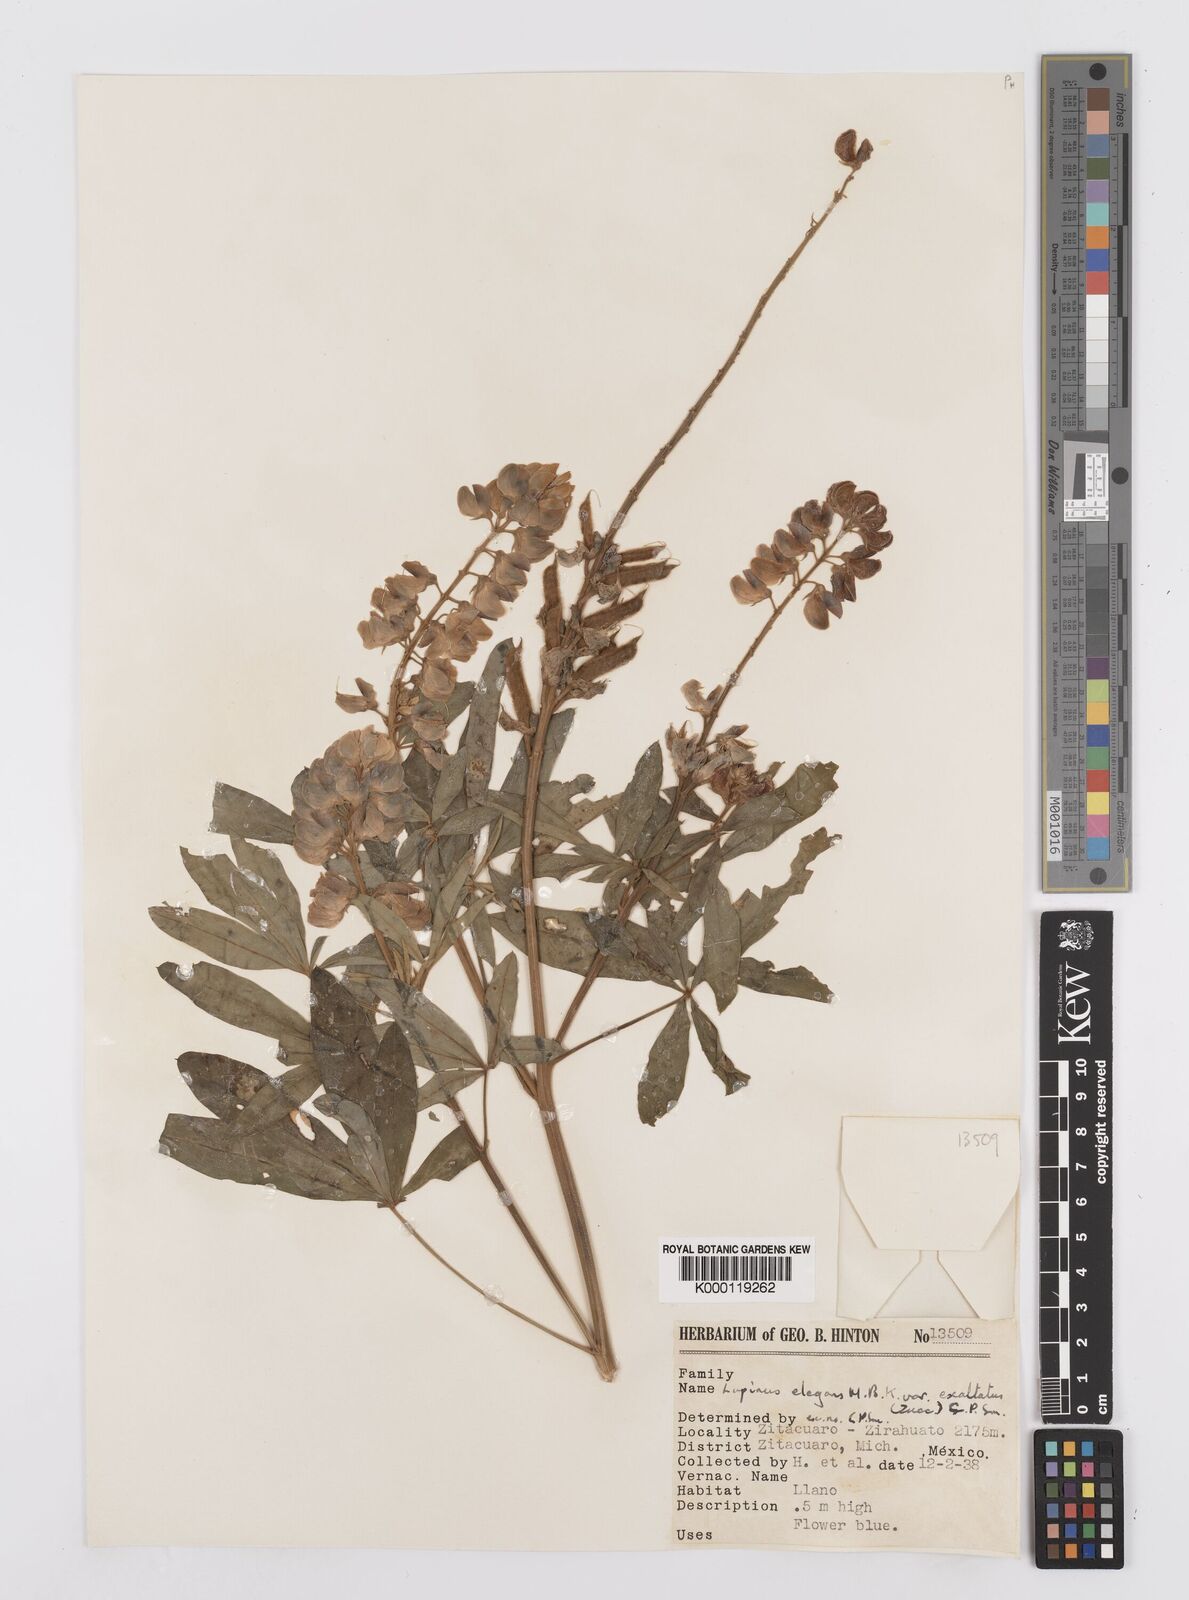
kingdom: Plantae
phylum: Tracheophyta
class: Magnoliopsida
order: Fabales
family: Fabaceae
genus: Lupinus
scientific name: Lupinus elegans
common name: Mexican lupine
